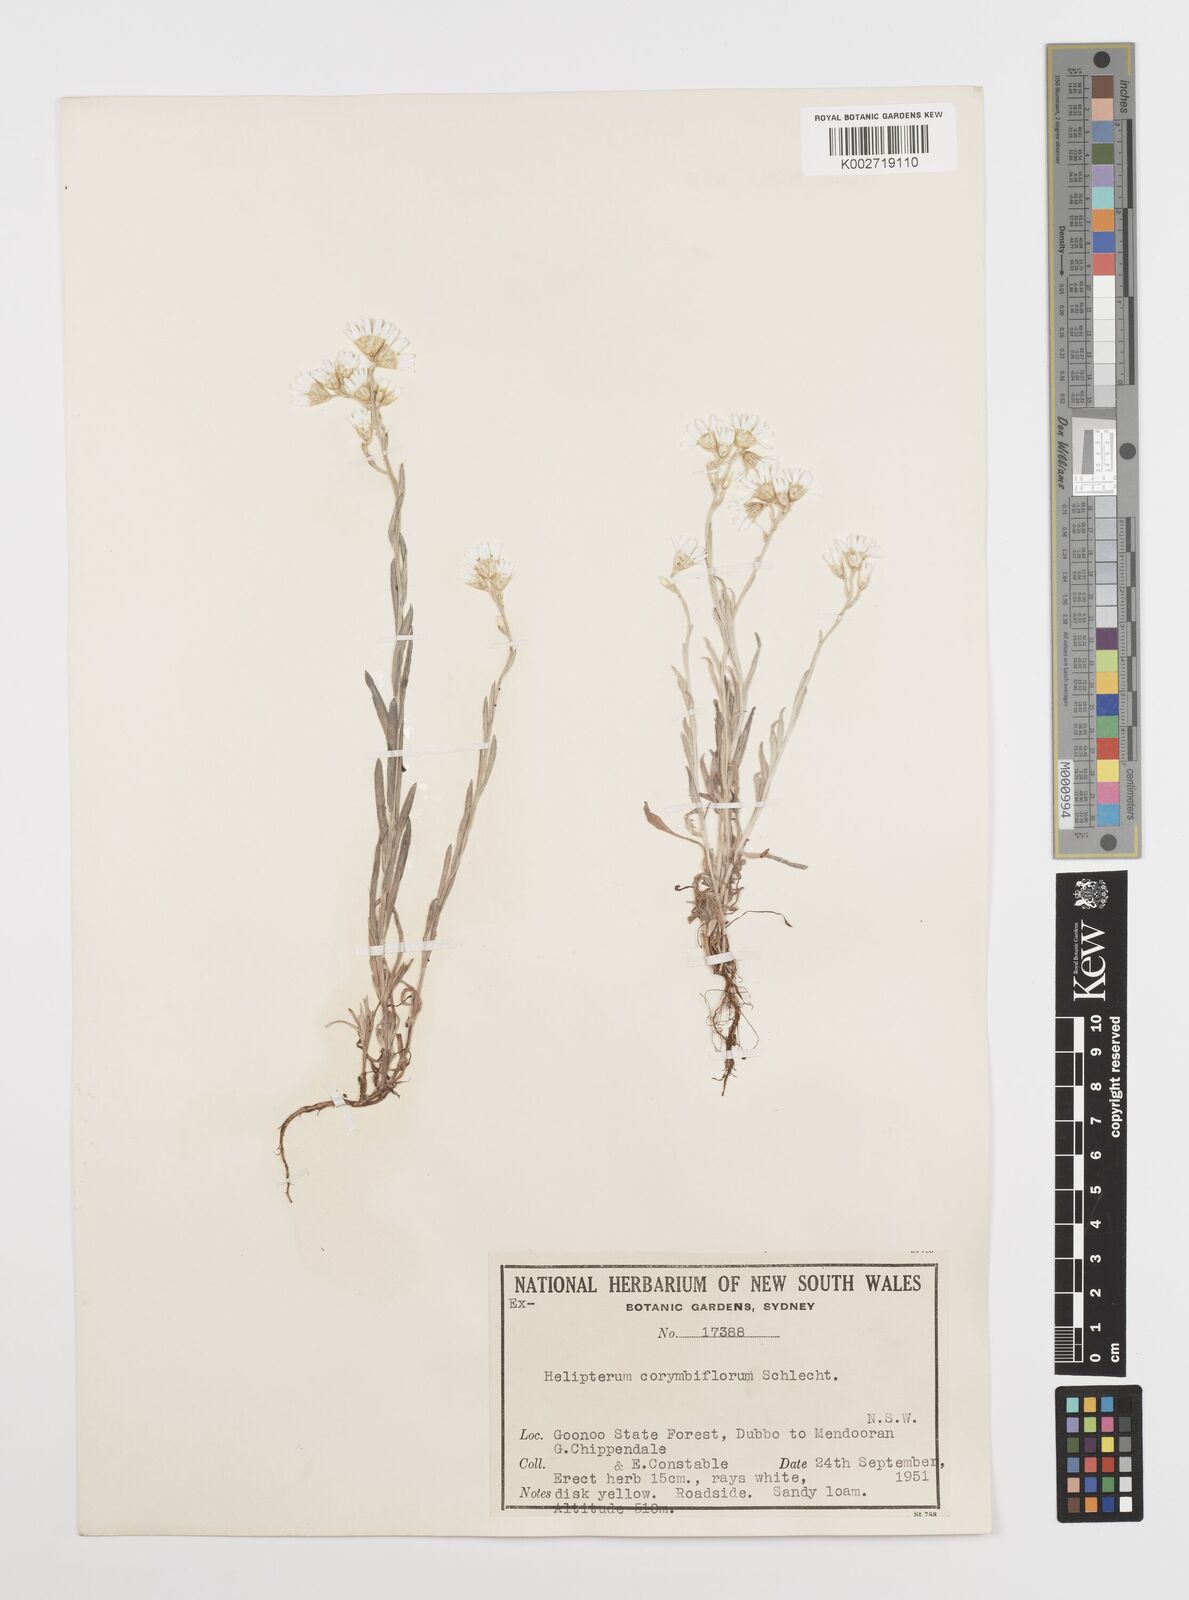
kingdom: Plantae
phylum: Tracheophyta
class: Magnoliopsida
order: Asterales
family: Asteraceae
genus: Rhodanthe
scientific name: Rhodanthe corymbiflora
